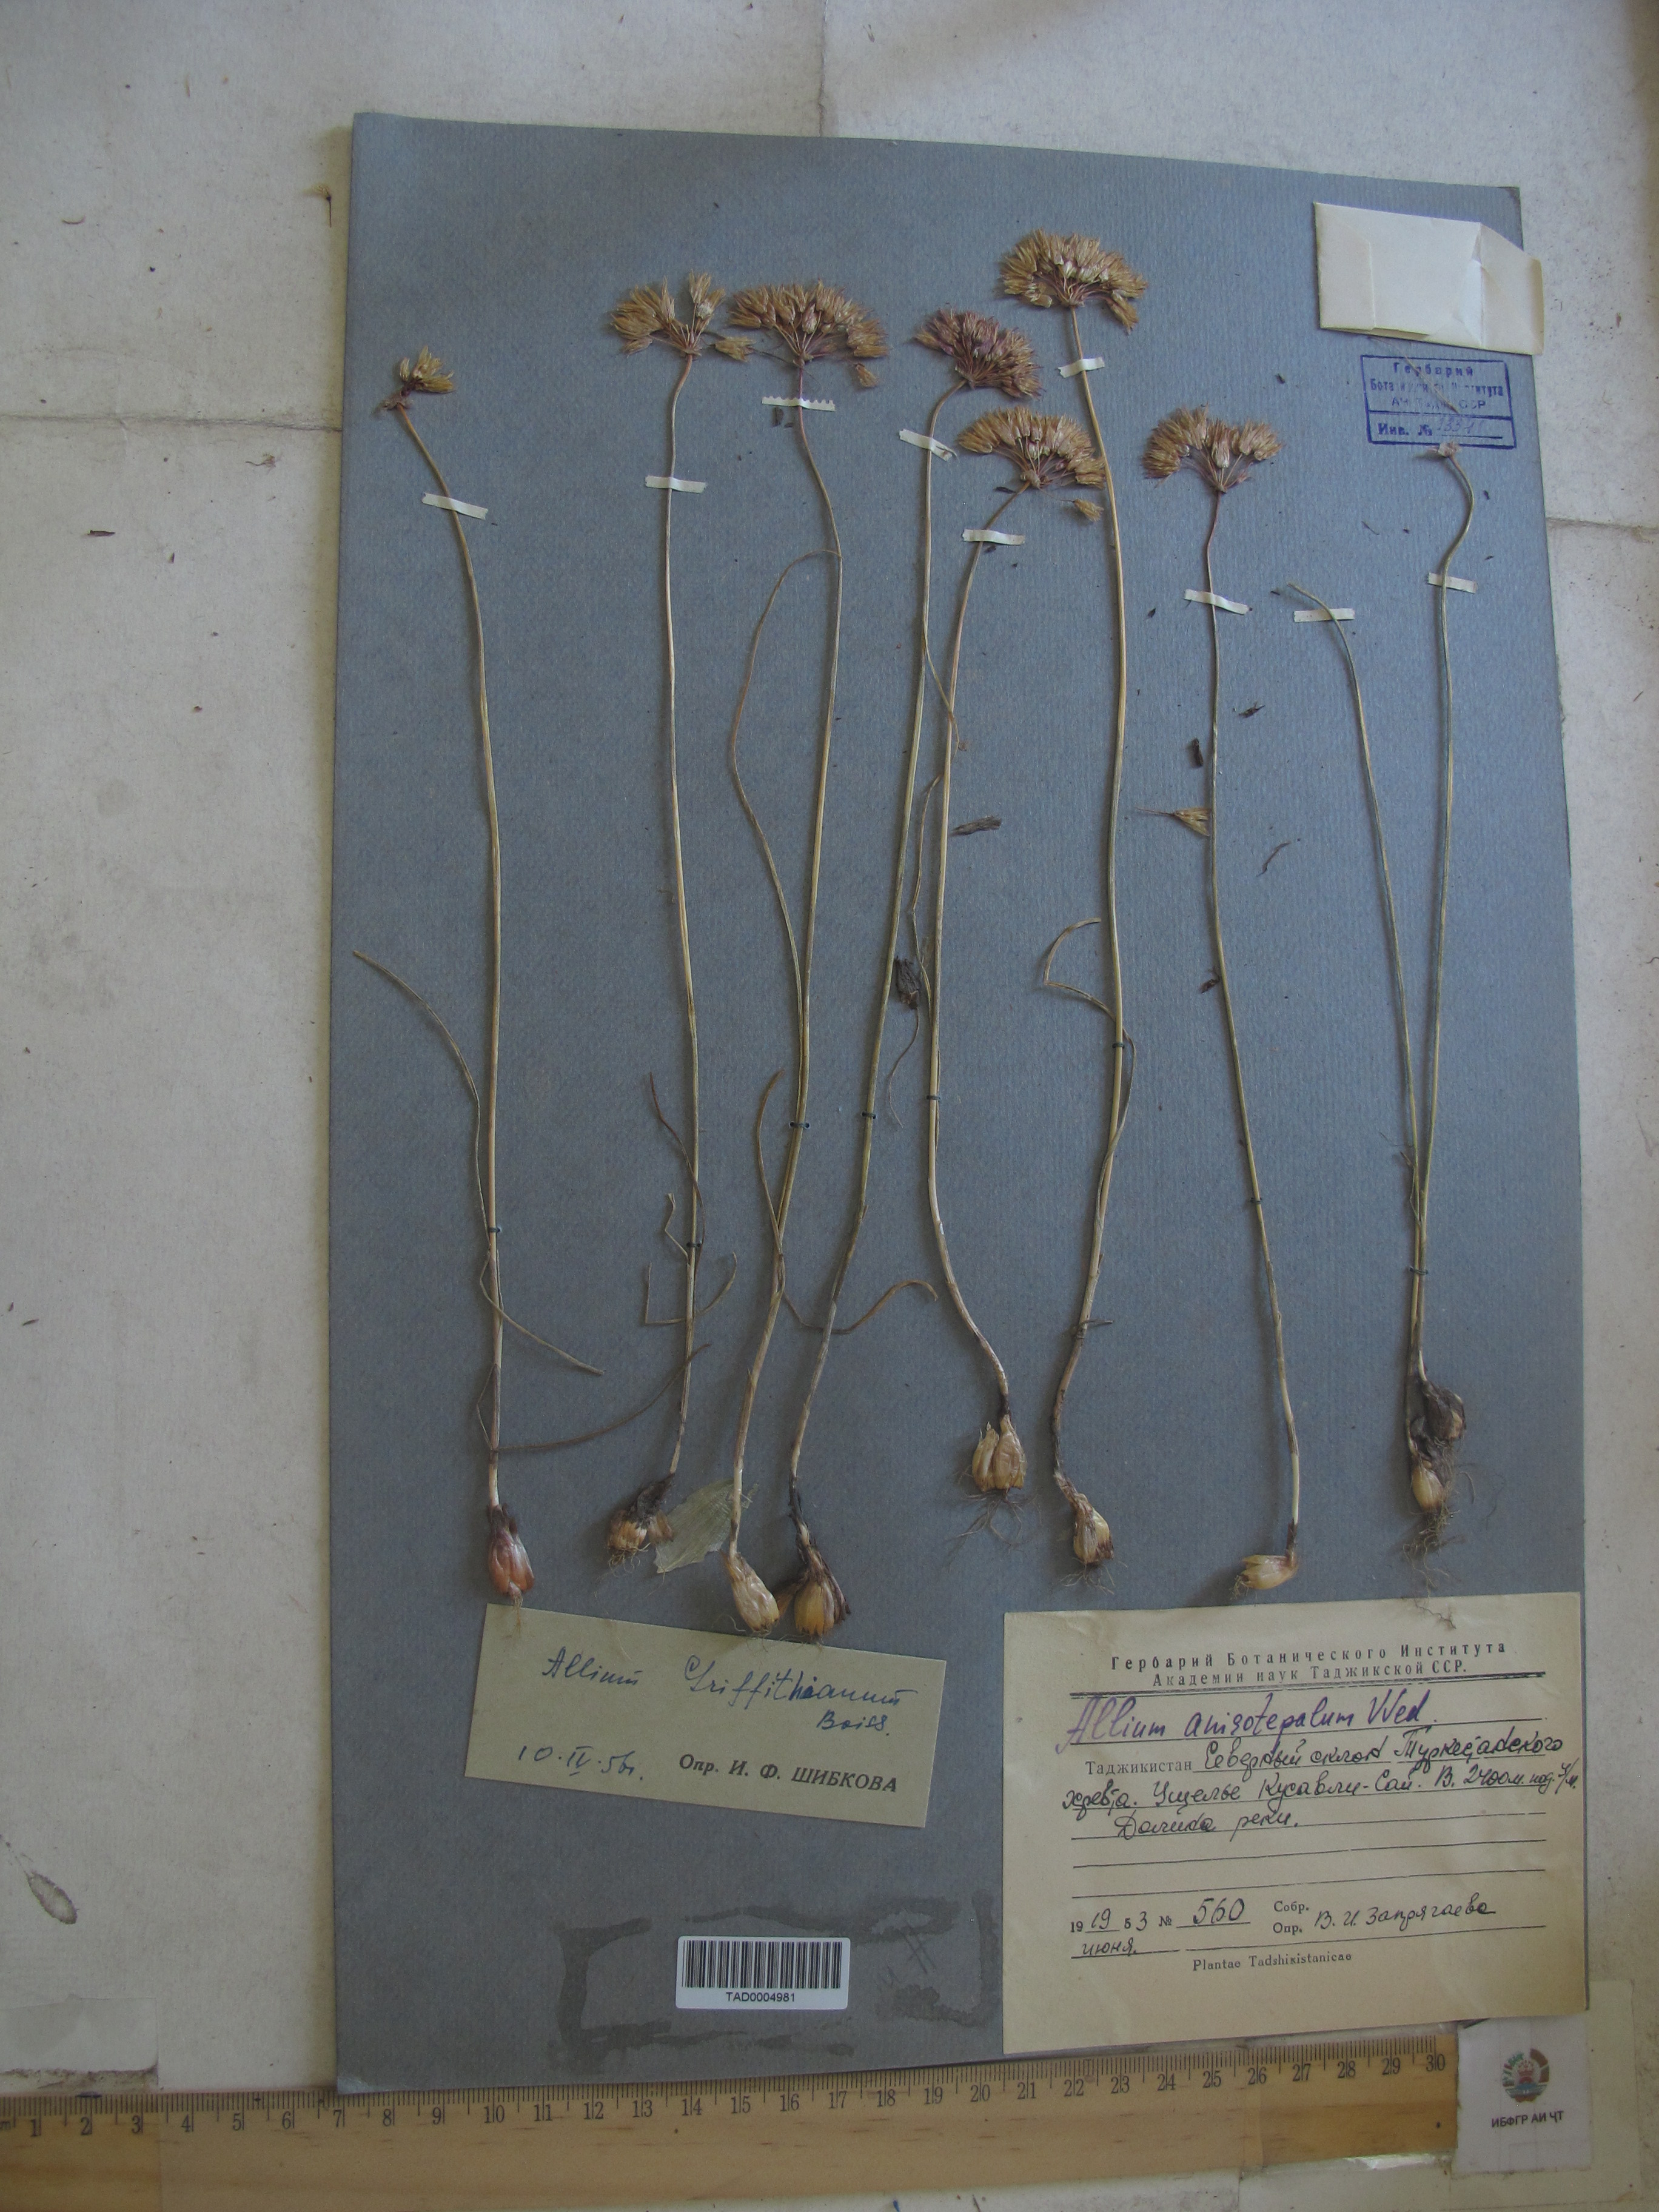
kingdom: Plantae
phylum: Tracheophyta
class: Liliopsida
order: Asparagales
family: Amaryllidaceae
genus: Allium
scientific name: Allium griffithianum
